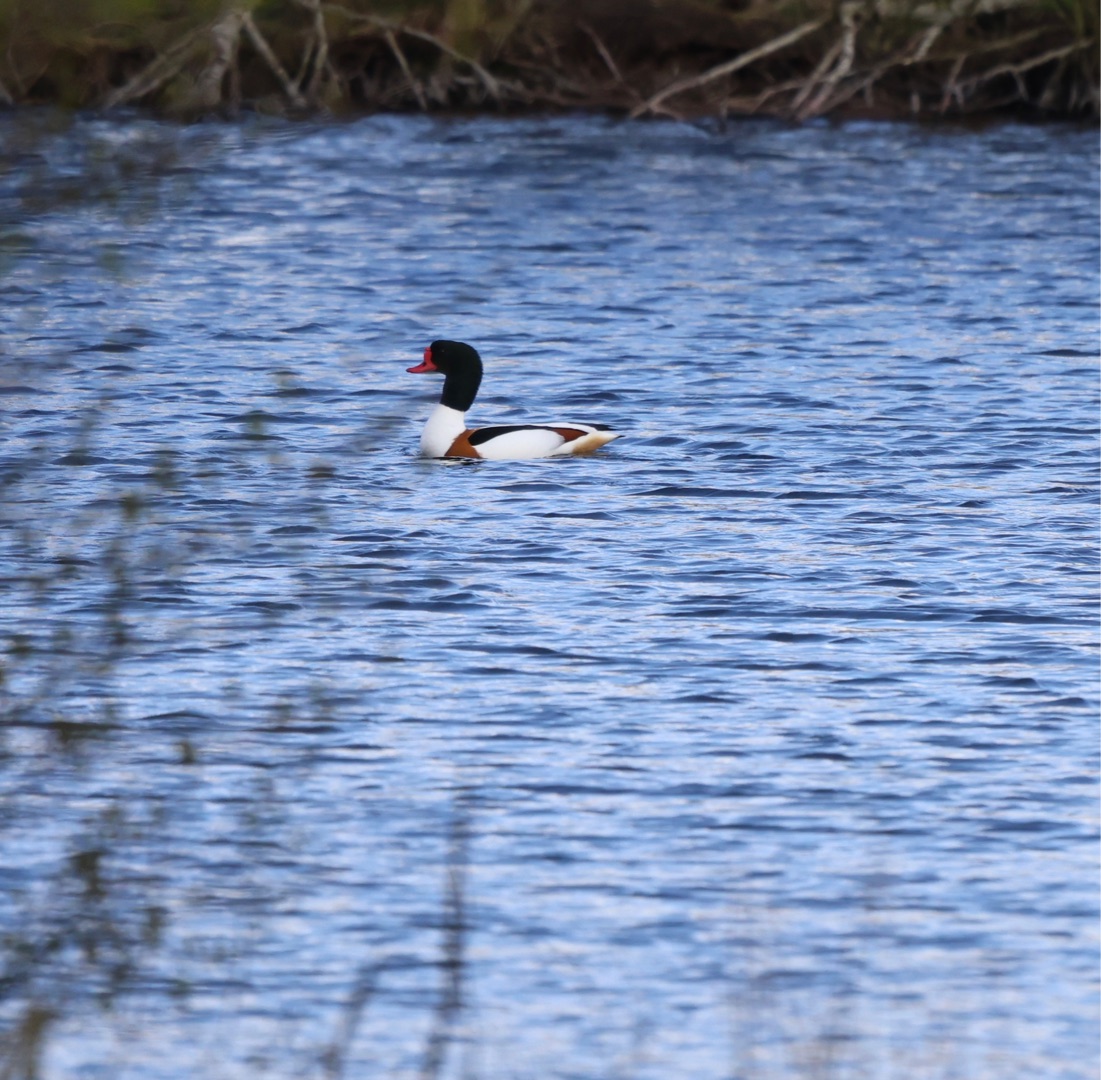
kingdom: Animalia
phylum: Chordata
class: Aves
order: Anseriformes
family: Anatidae
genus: Tadorna
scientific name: Tadorna tadorna
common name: Gravand
